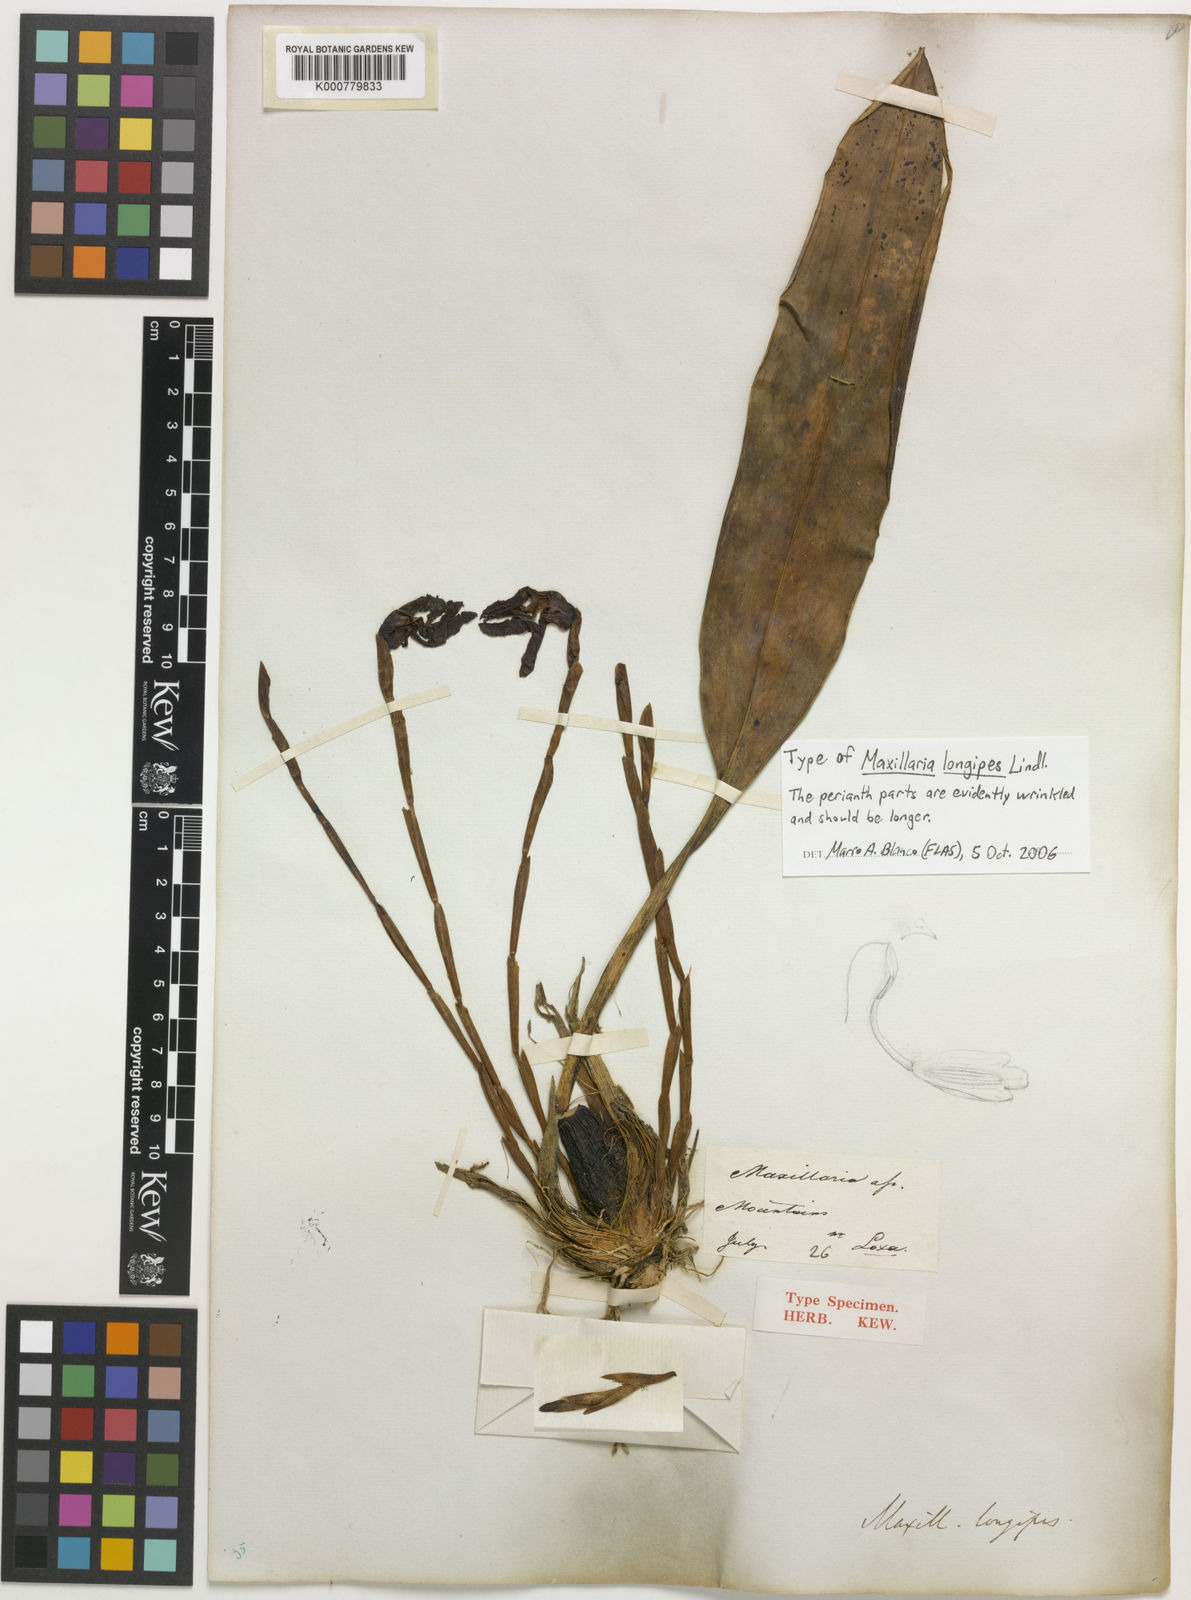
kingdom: Plantae
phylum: Tracheophyta
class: Liliopsida
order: Asparagales
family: Orchidaceae
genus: Maxillaria
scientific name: Maxillaria longipes
